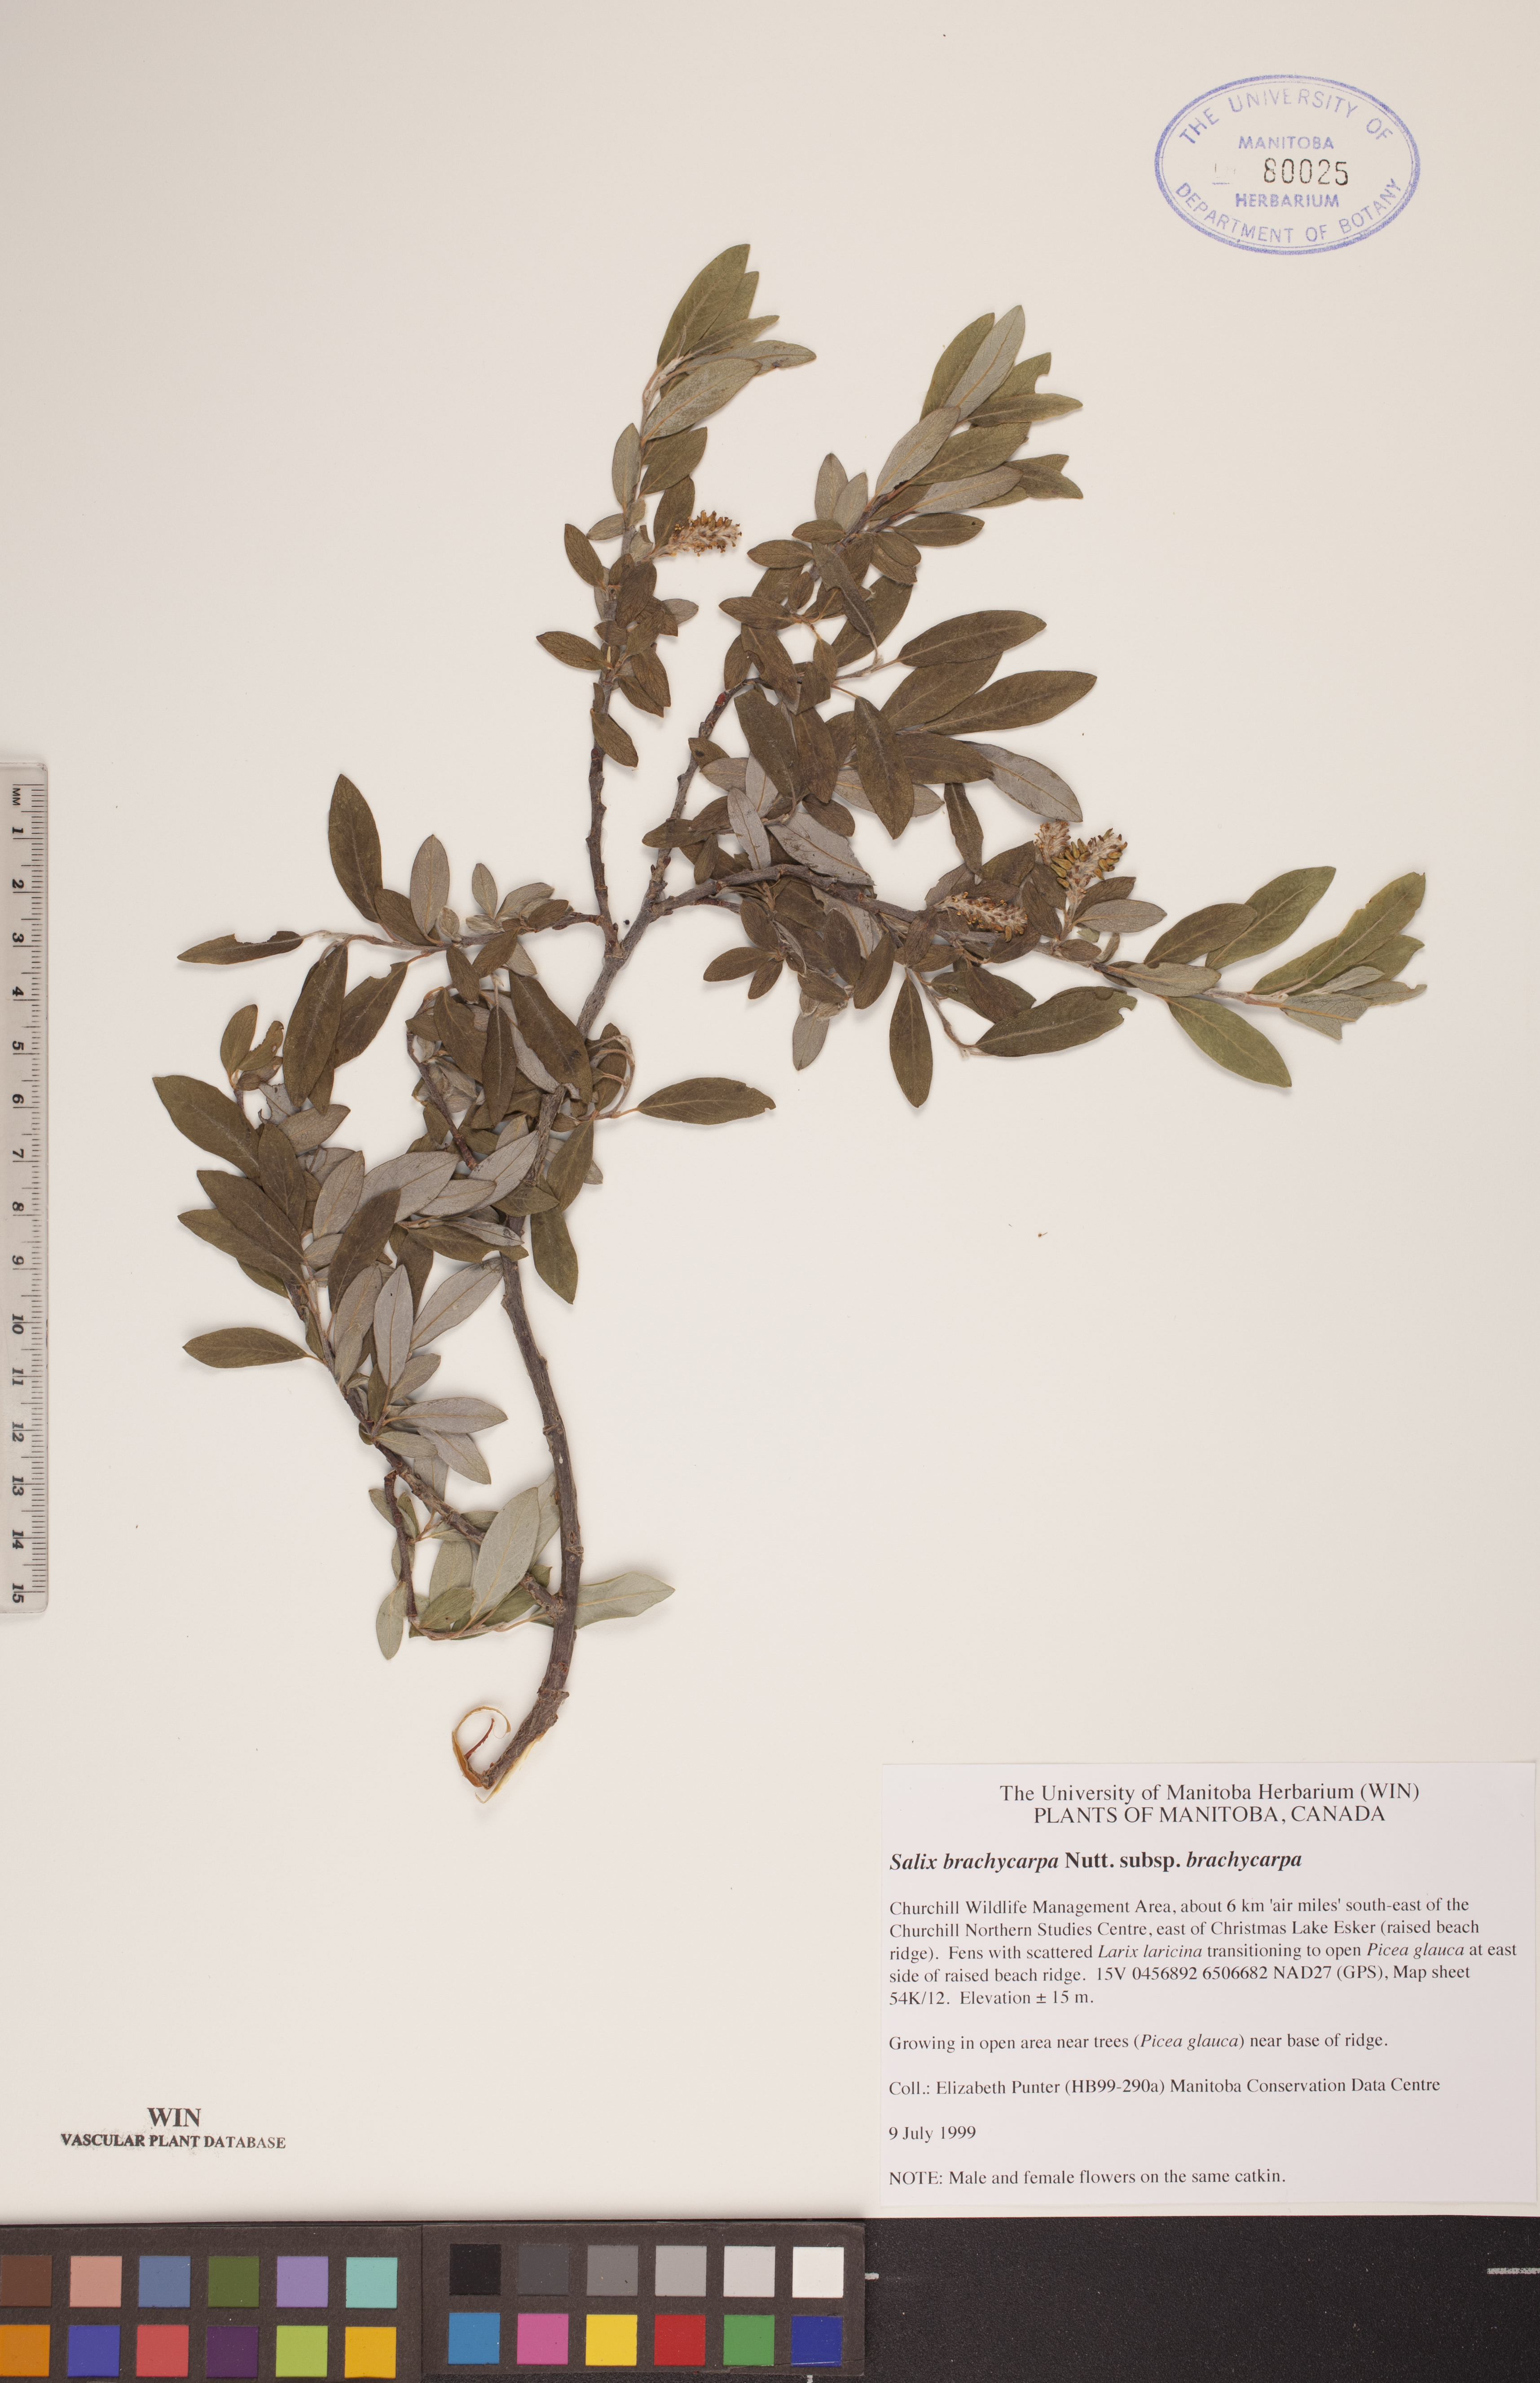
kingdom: Plantae
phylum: Tracheophyta
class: Magnoliopsida
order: Malpighiales
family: Salicaceae
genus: Salix
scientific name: Salix brachycarpa
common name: Barren-ground willow
